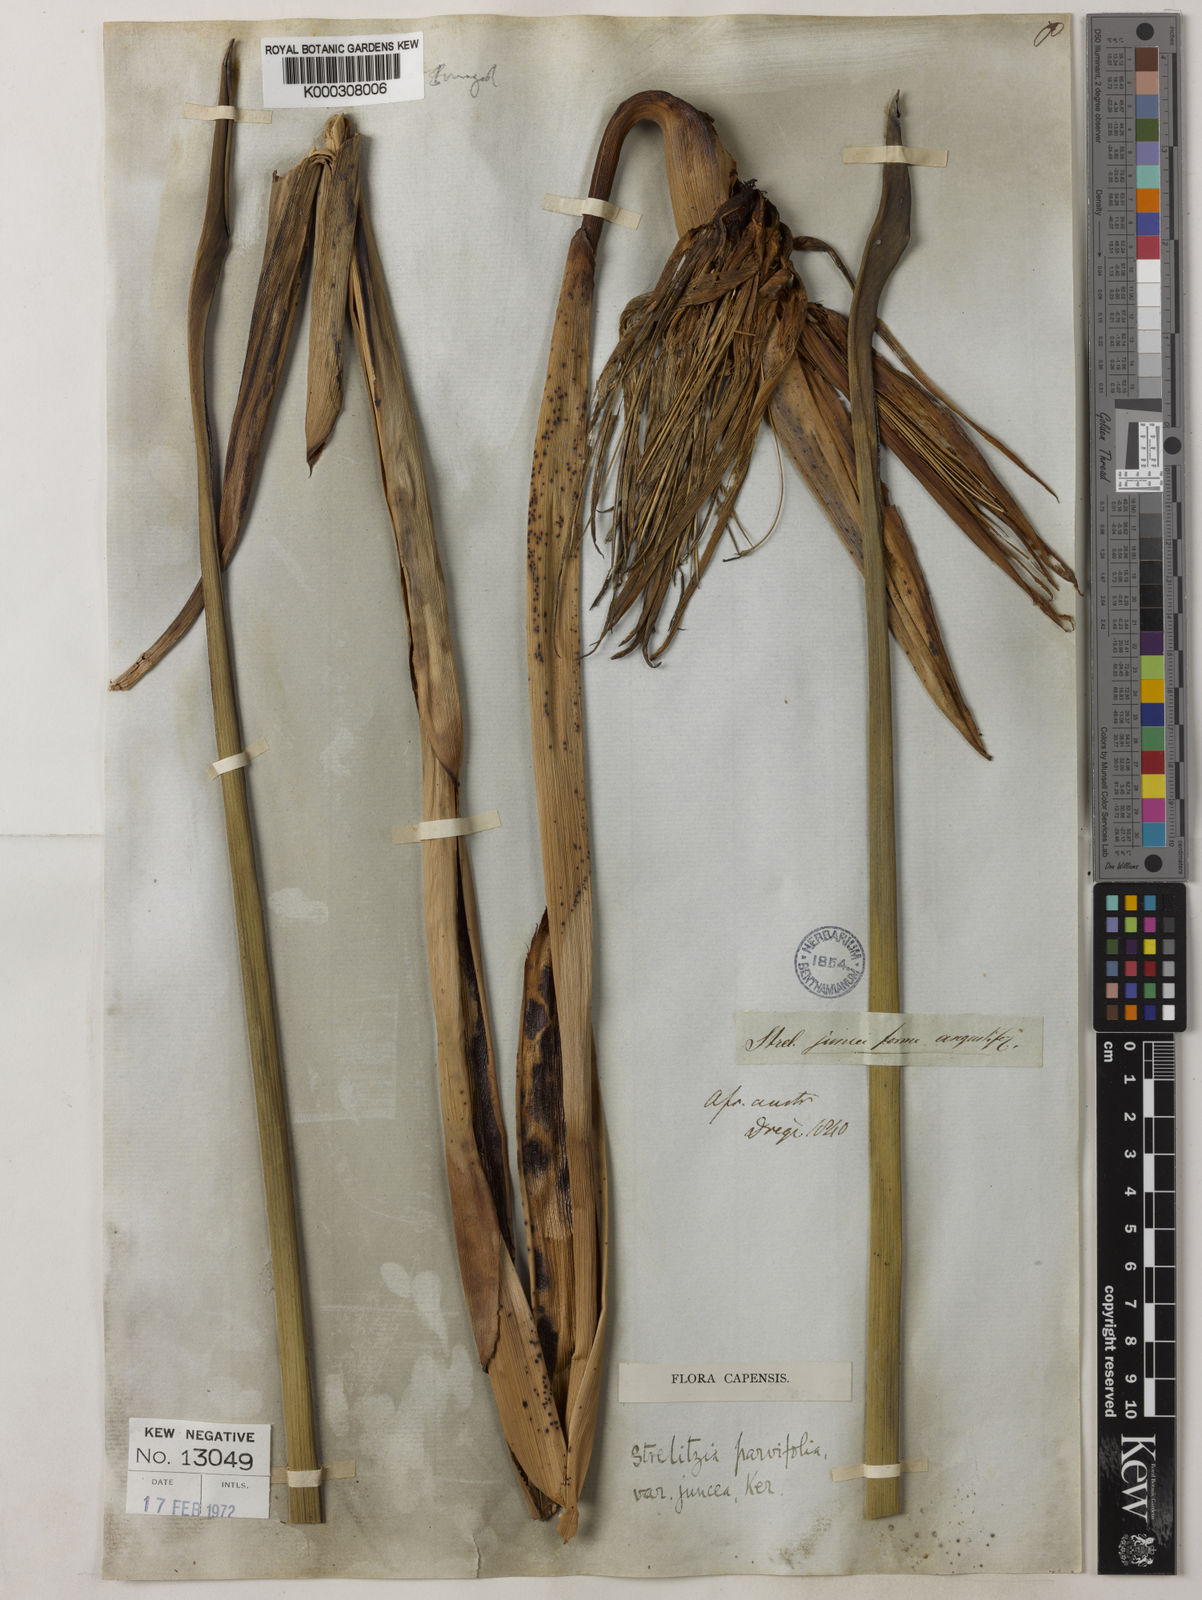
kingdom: Plantae
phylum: Tracheophyta
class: Liliopsida
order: Zingiberales
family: Strelitziaceae
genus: Strelitzia
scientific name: Strelitzia juncea
